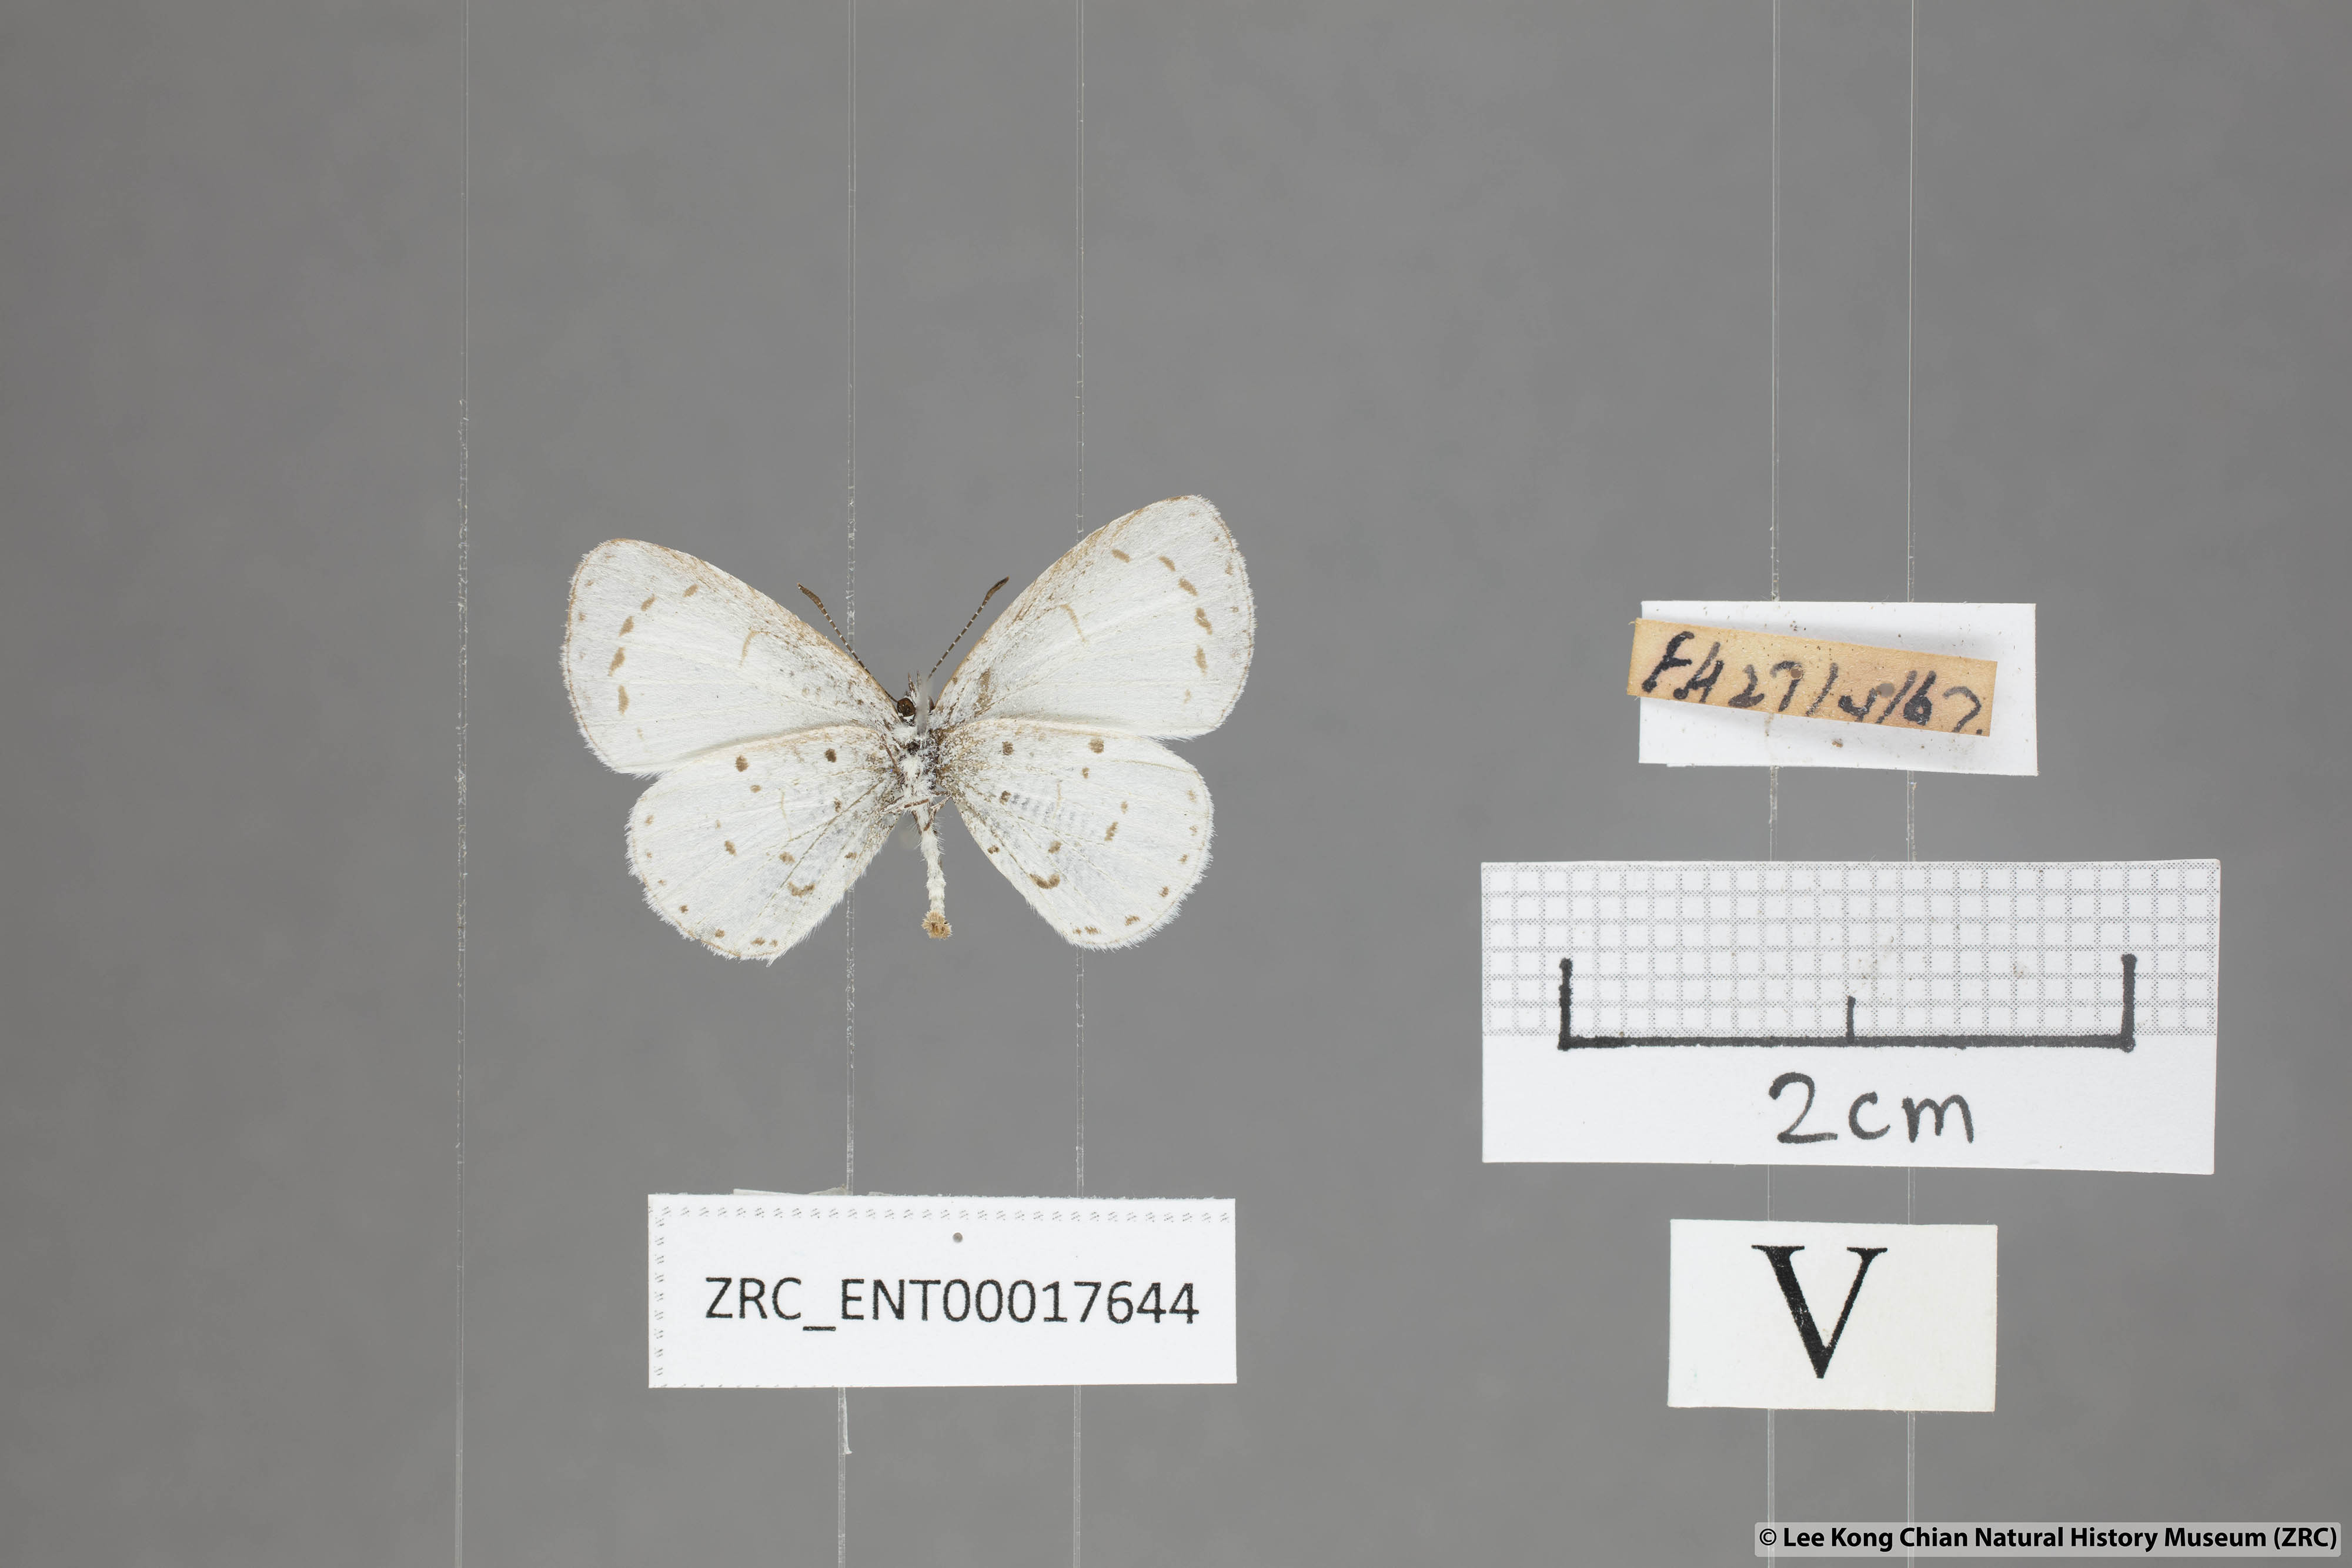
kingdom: Animalia
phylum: Arthropoda
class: Insecta
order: Lepidoptera
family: Lycaenidae
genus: Udara
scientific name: Udara akasa
